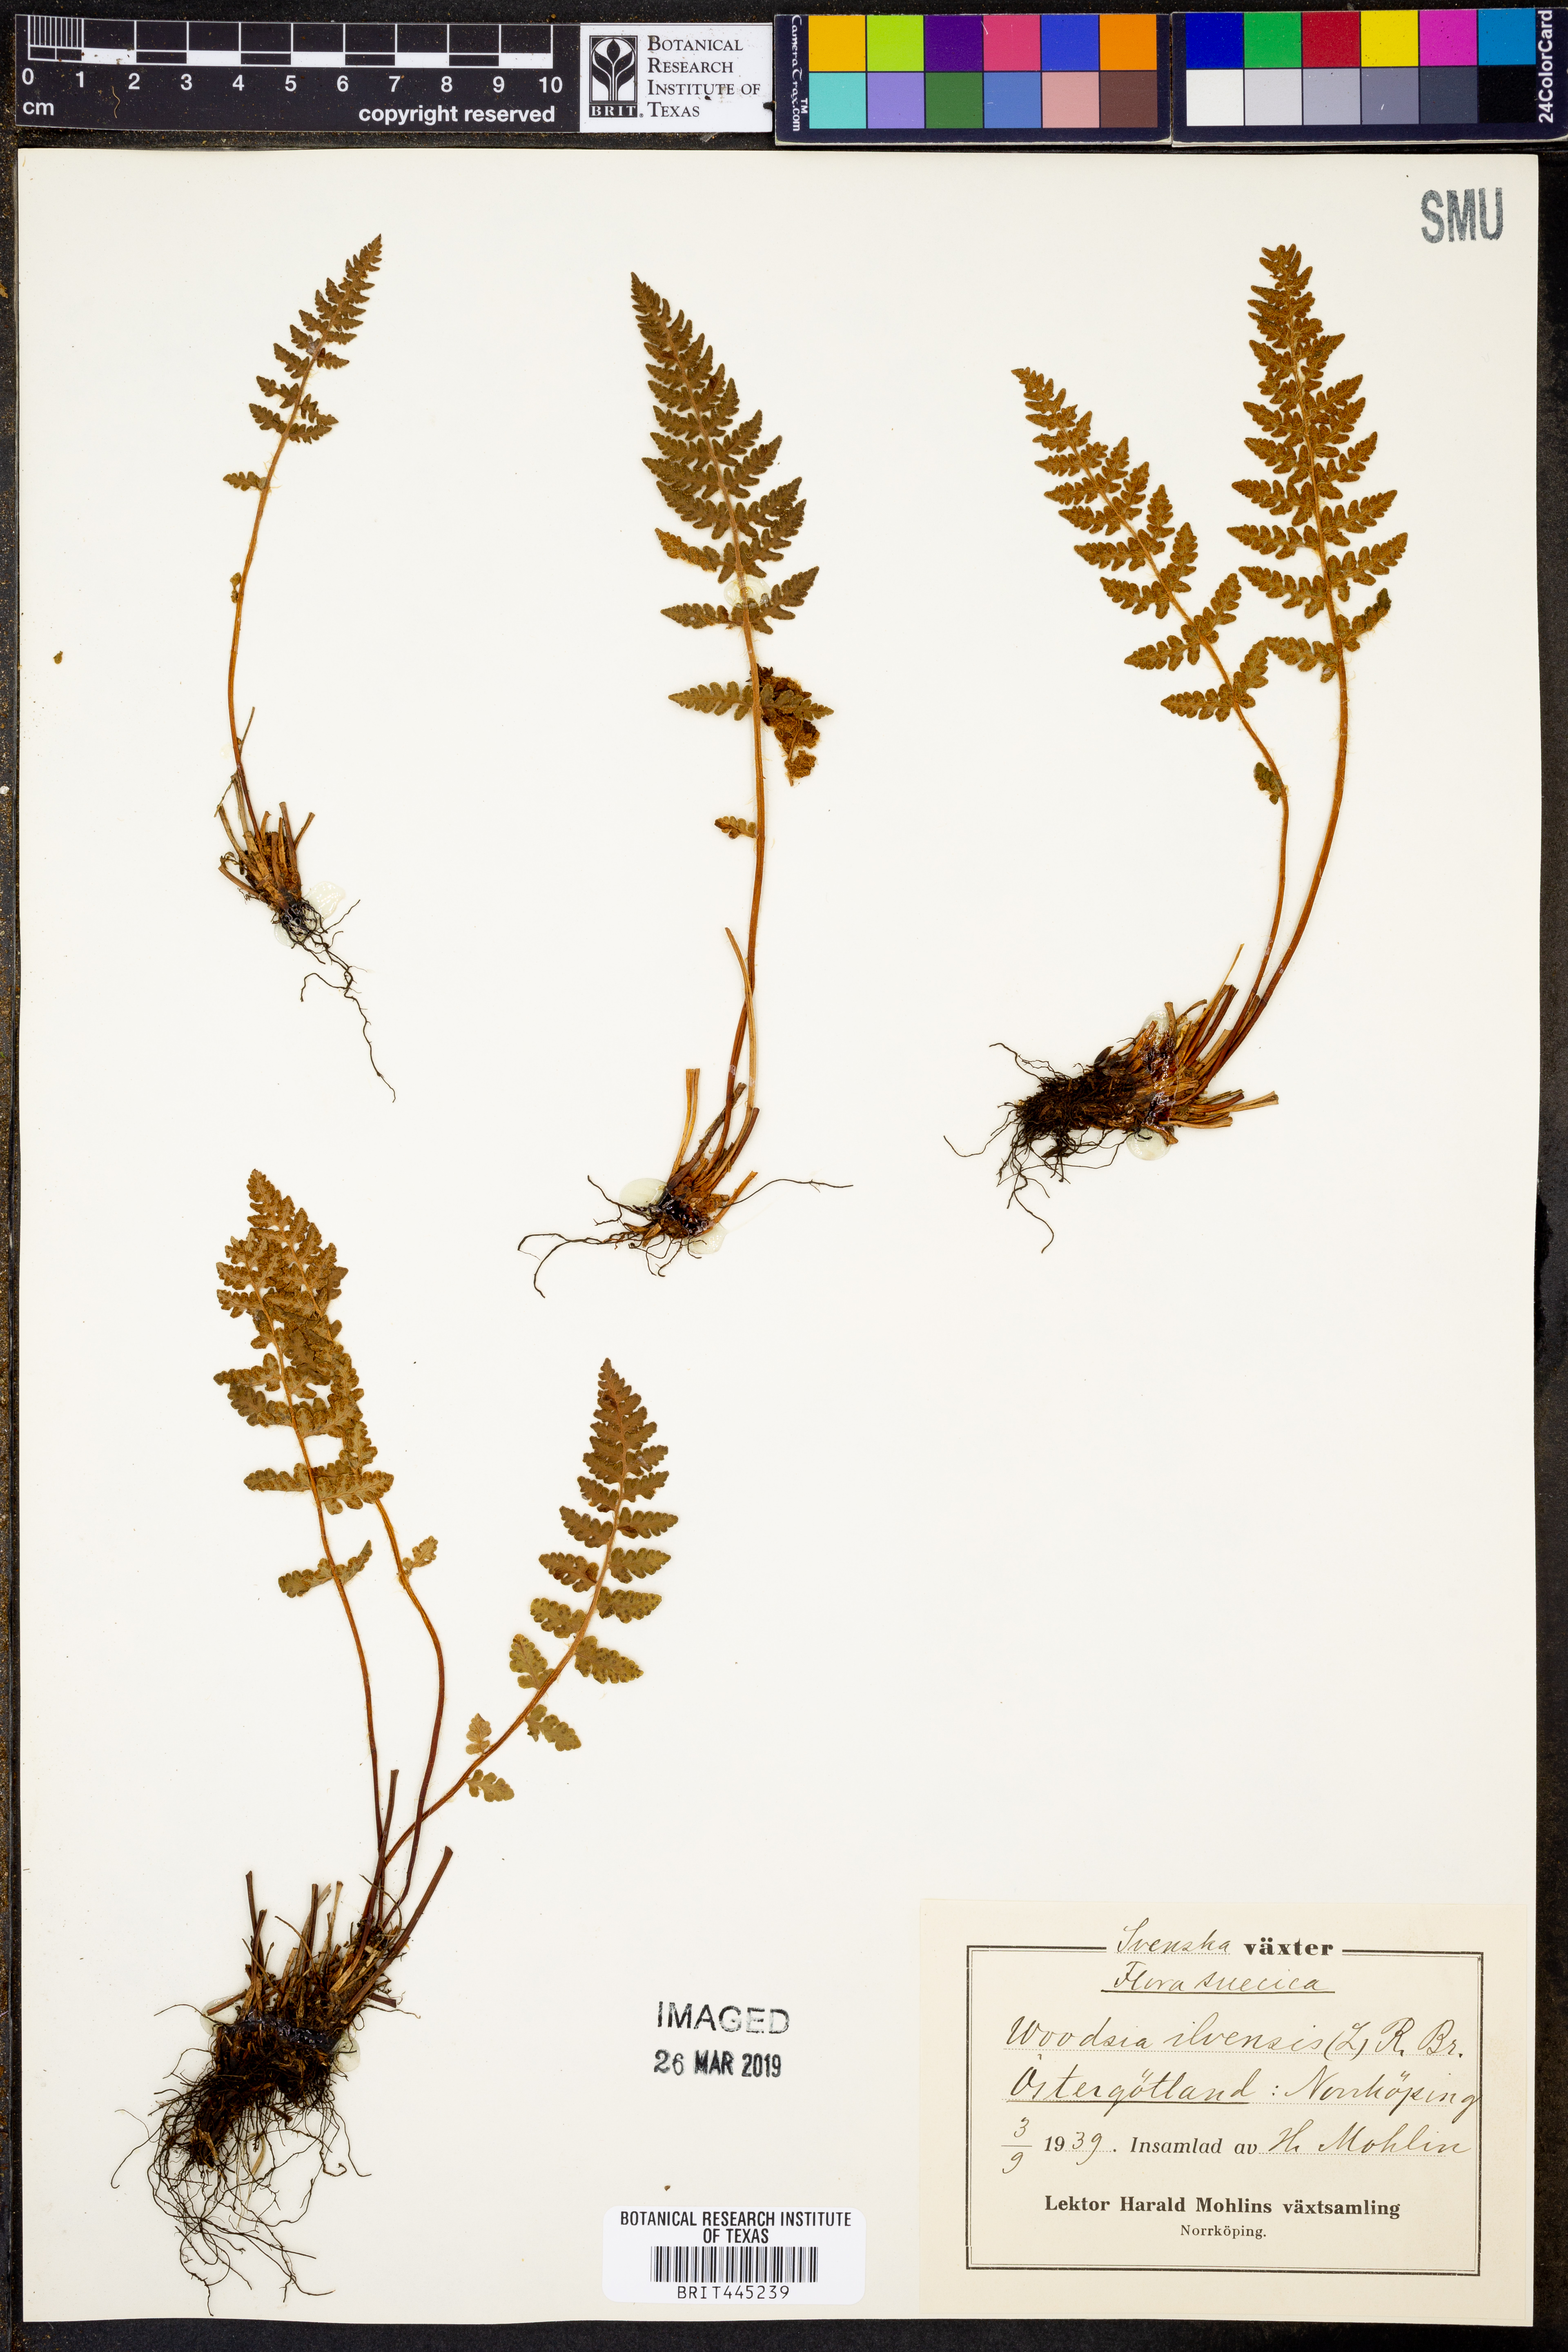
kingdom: Plantae
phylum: Tracheophyta
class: Polypodiopsida
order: Polypodiales
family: Woodsiaceae
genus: Woodsia
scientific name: Woodsia ilvensis
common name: Fragrant woodsia
